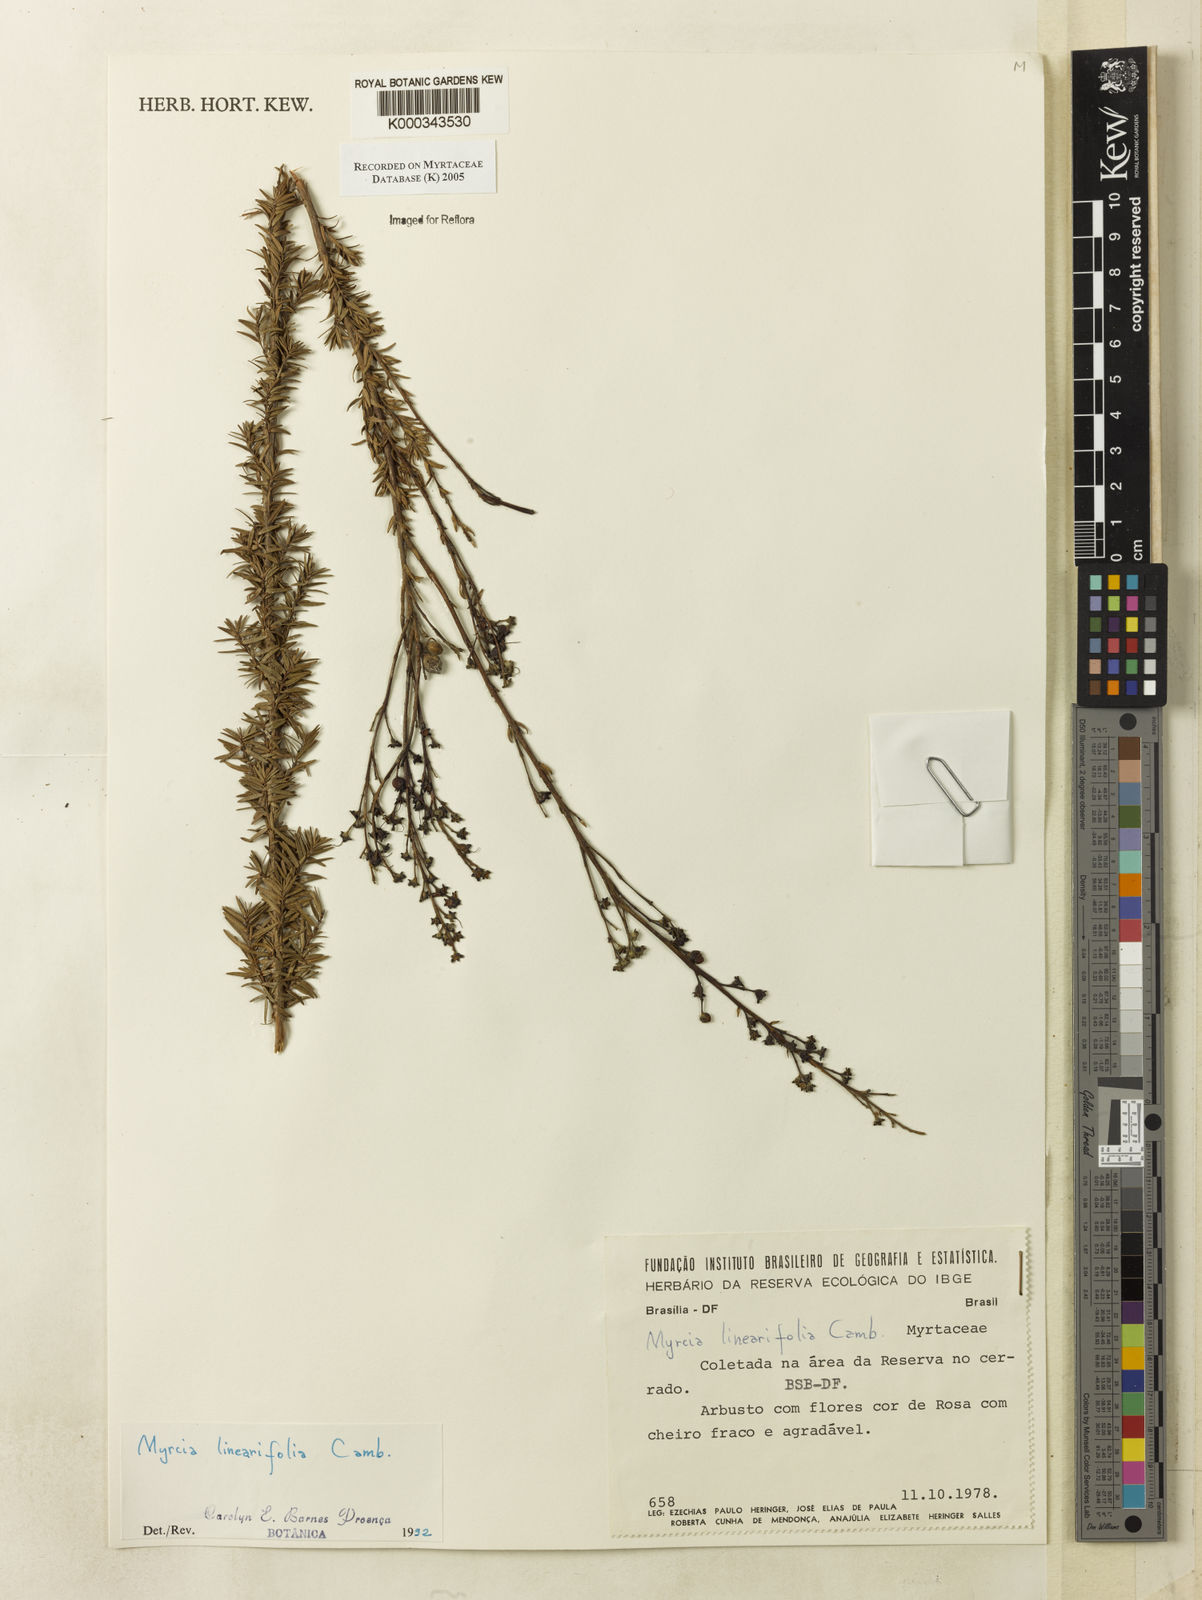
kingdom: Plantae
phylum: Tracheophyta
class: Magnoliopsida
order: Myrtales
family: Myrtaceae
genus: Myrcia
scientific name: Myrcia linearifolia
